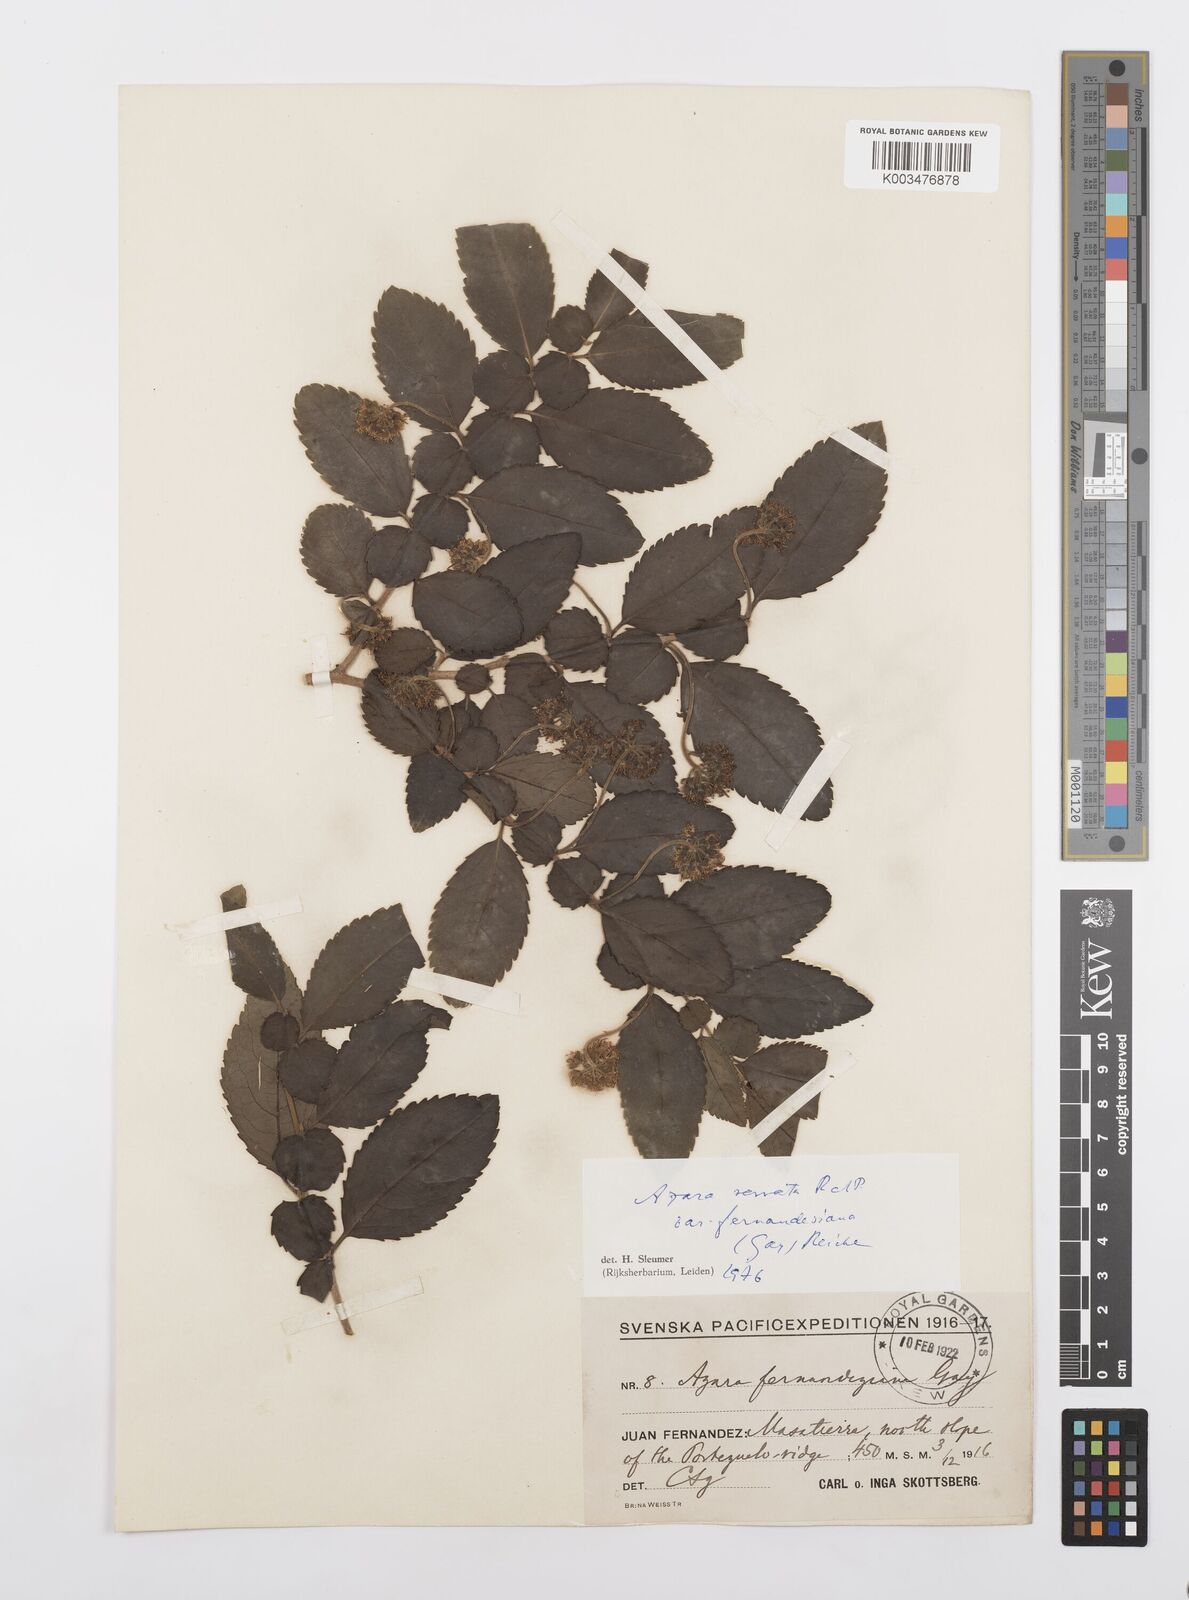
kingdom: Plantae
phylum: Tracheophyta
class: Magnoliopsida
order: Malpighiales
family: Salicaceae
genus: Azara
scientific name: Azara serrata
